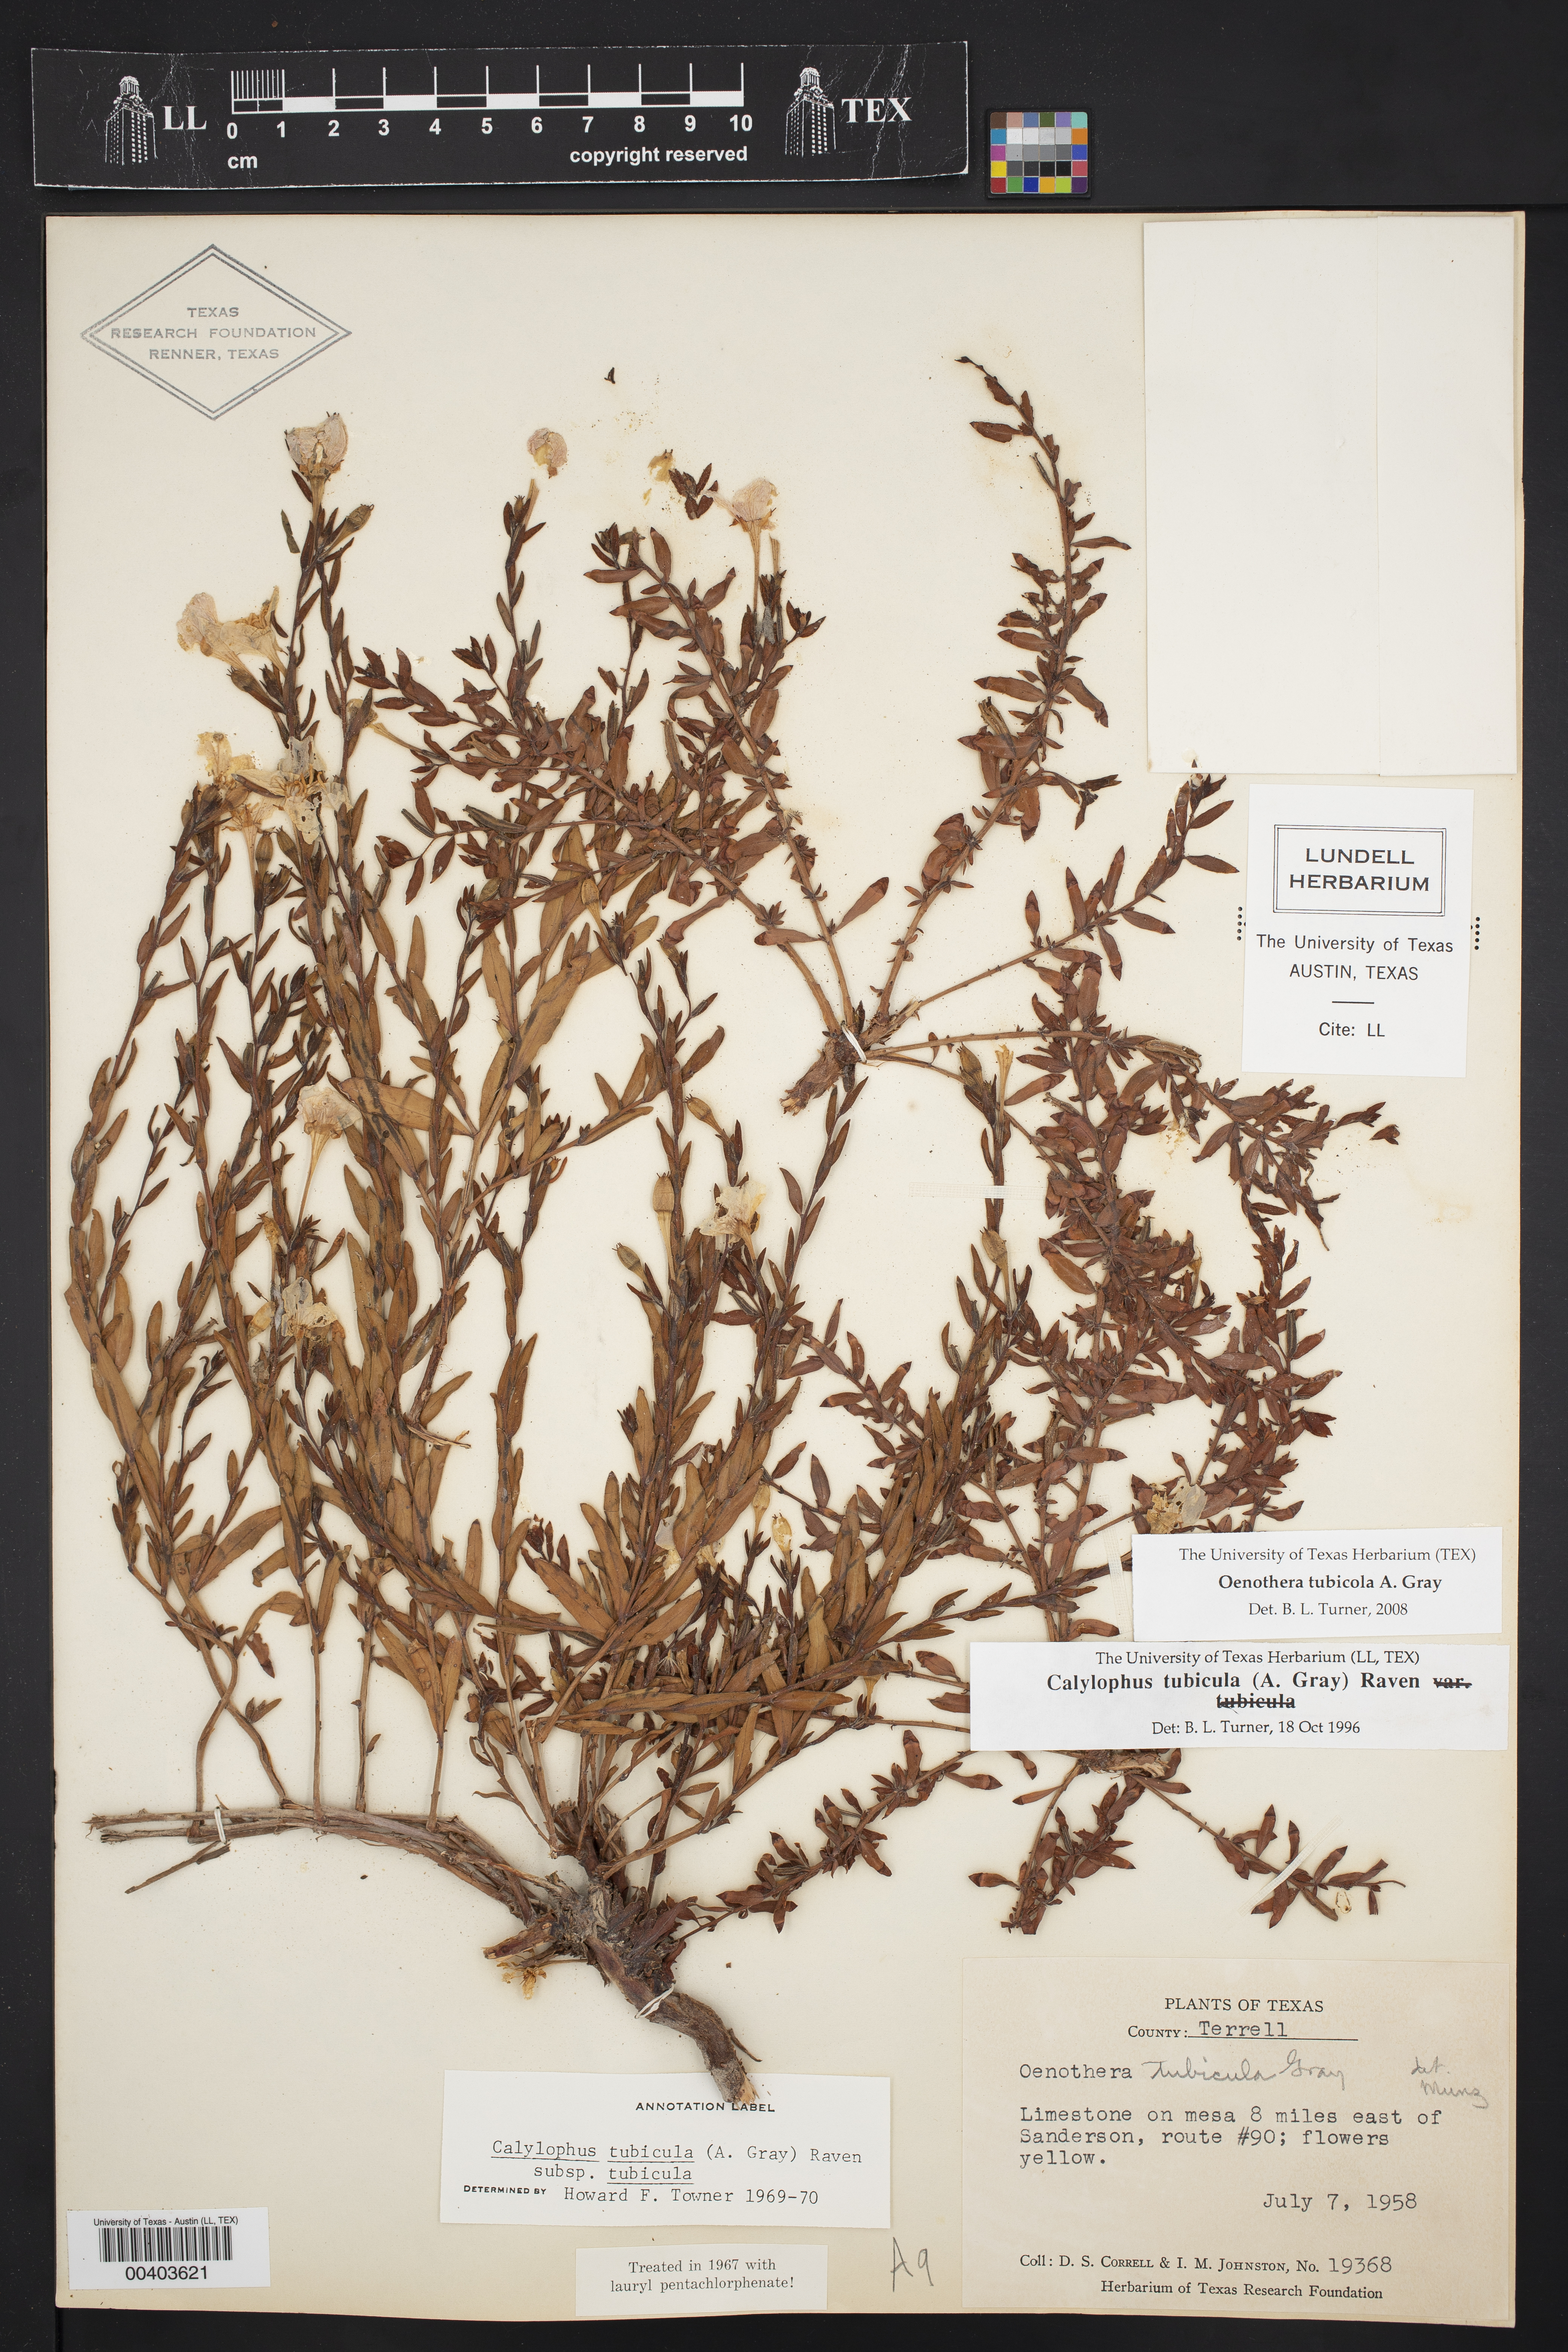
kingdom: Plantae
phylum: Tracheophyta
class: Magnoliopsida
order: Myrtales
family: Onagraceae
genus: Oenothera
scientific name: Oenothera tubicula
